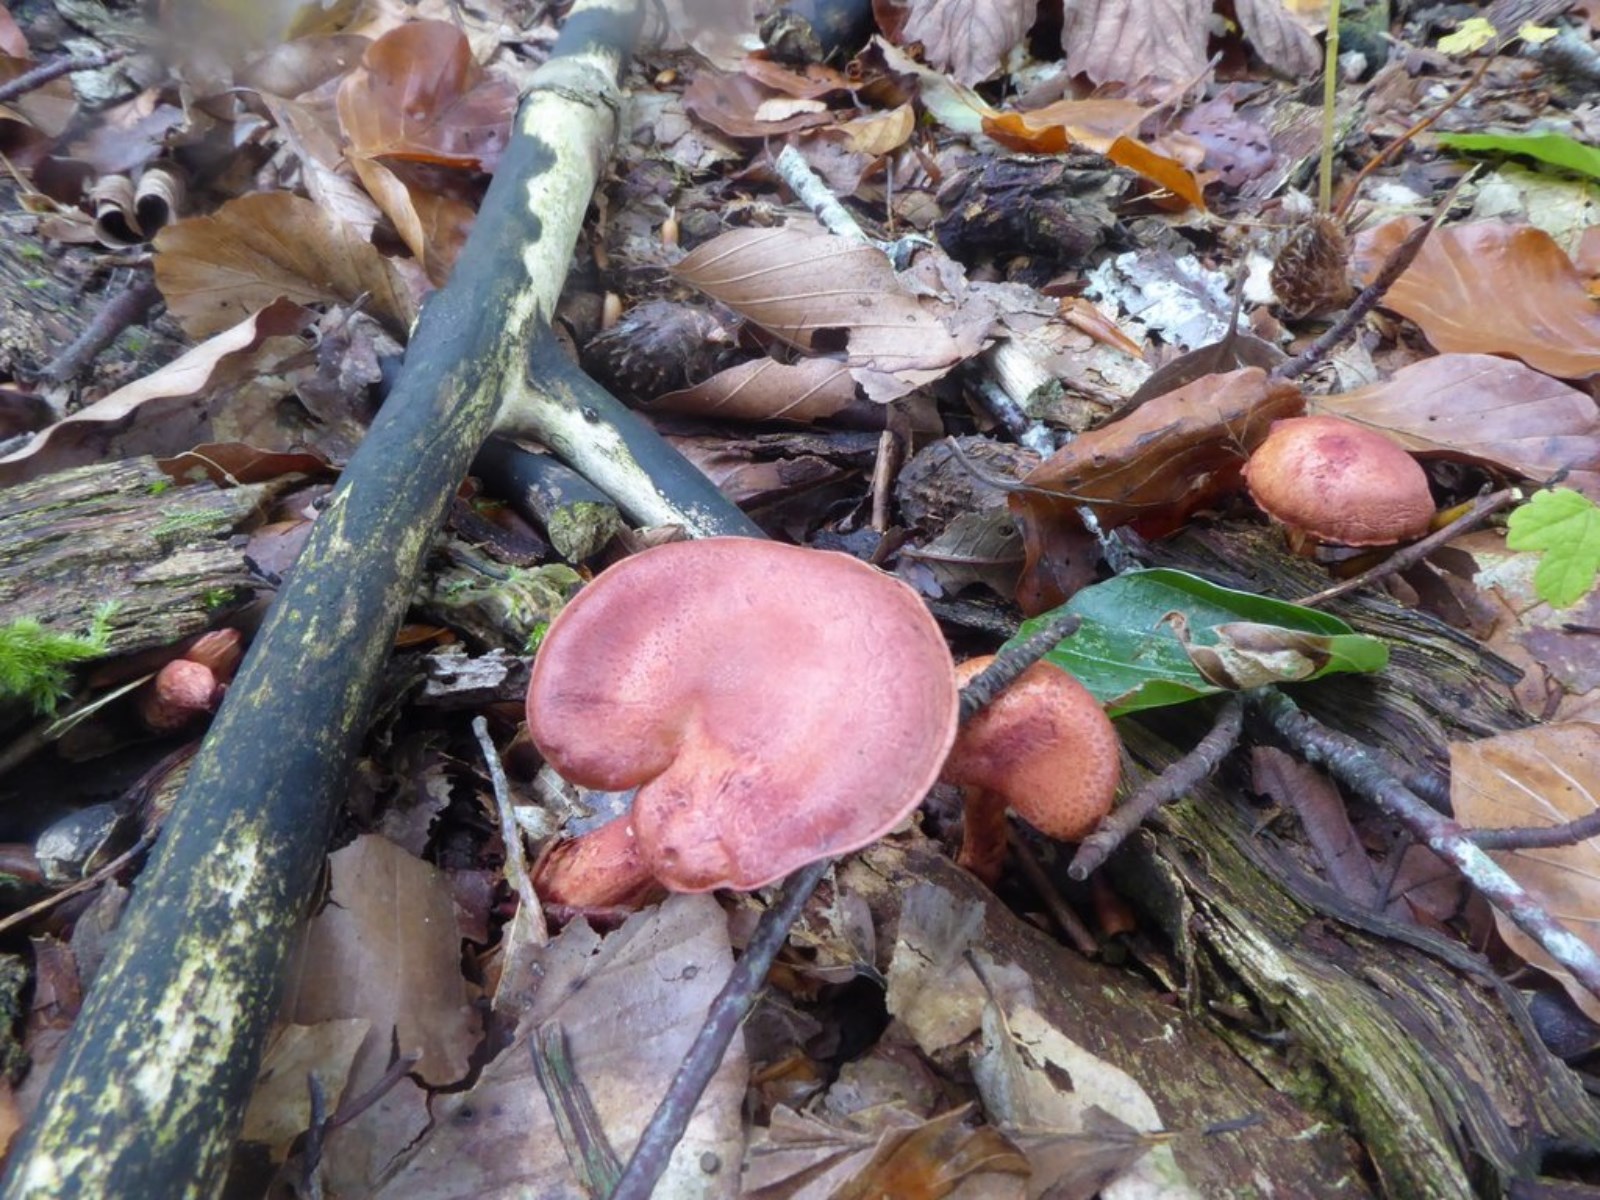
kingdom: Fungi
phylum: Basidiomycota
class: Agaricomycetes
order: Agaricales
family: Cortinariaceae
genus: Cortinarius
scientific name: Cortinarius bolaris
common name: cinnoberskællet slørhat
